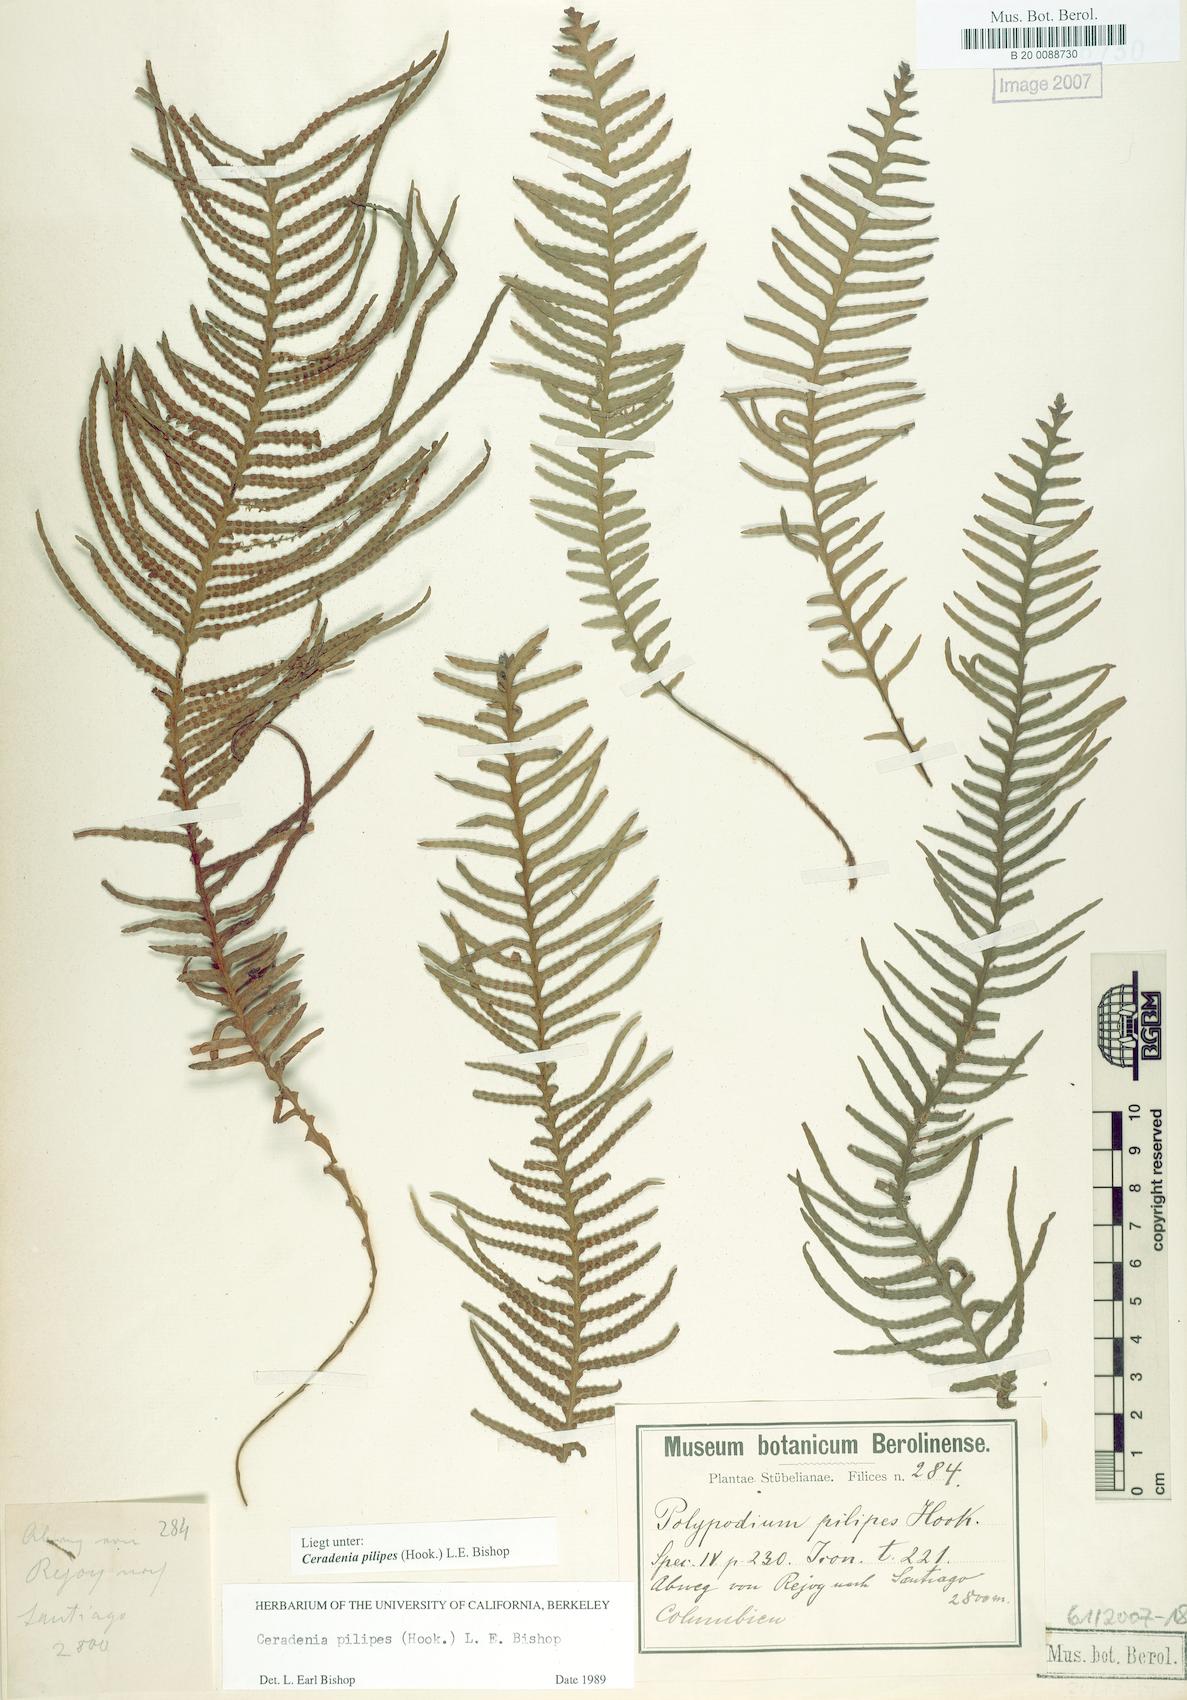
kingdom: Plantae
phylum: Tracheophyta
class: Polypodiopsida
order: Polypodiales
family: Polypodiaceae
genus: Ceradenia
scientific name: Ceradenia pilipes
